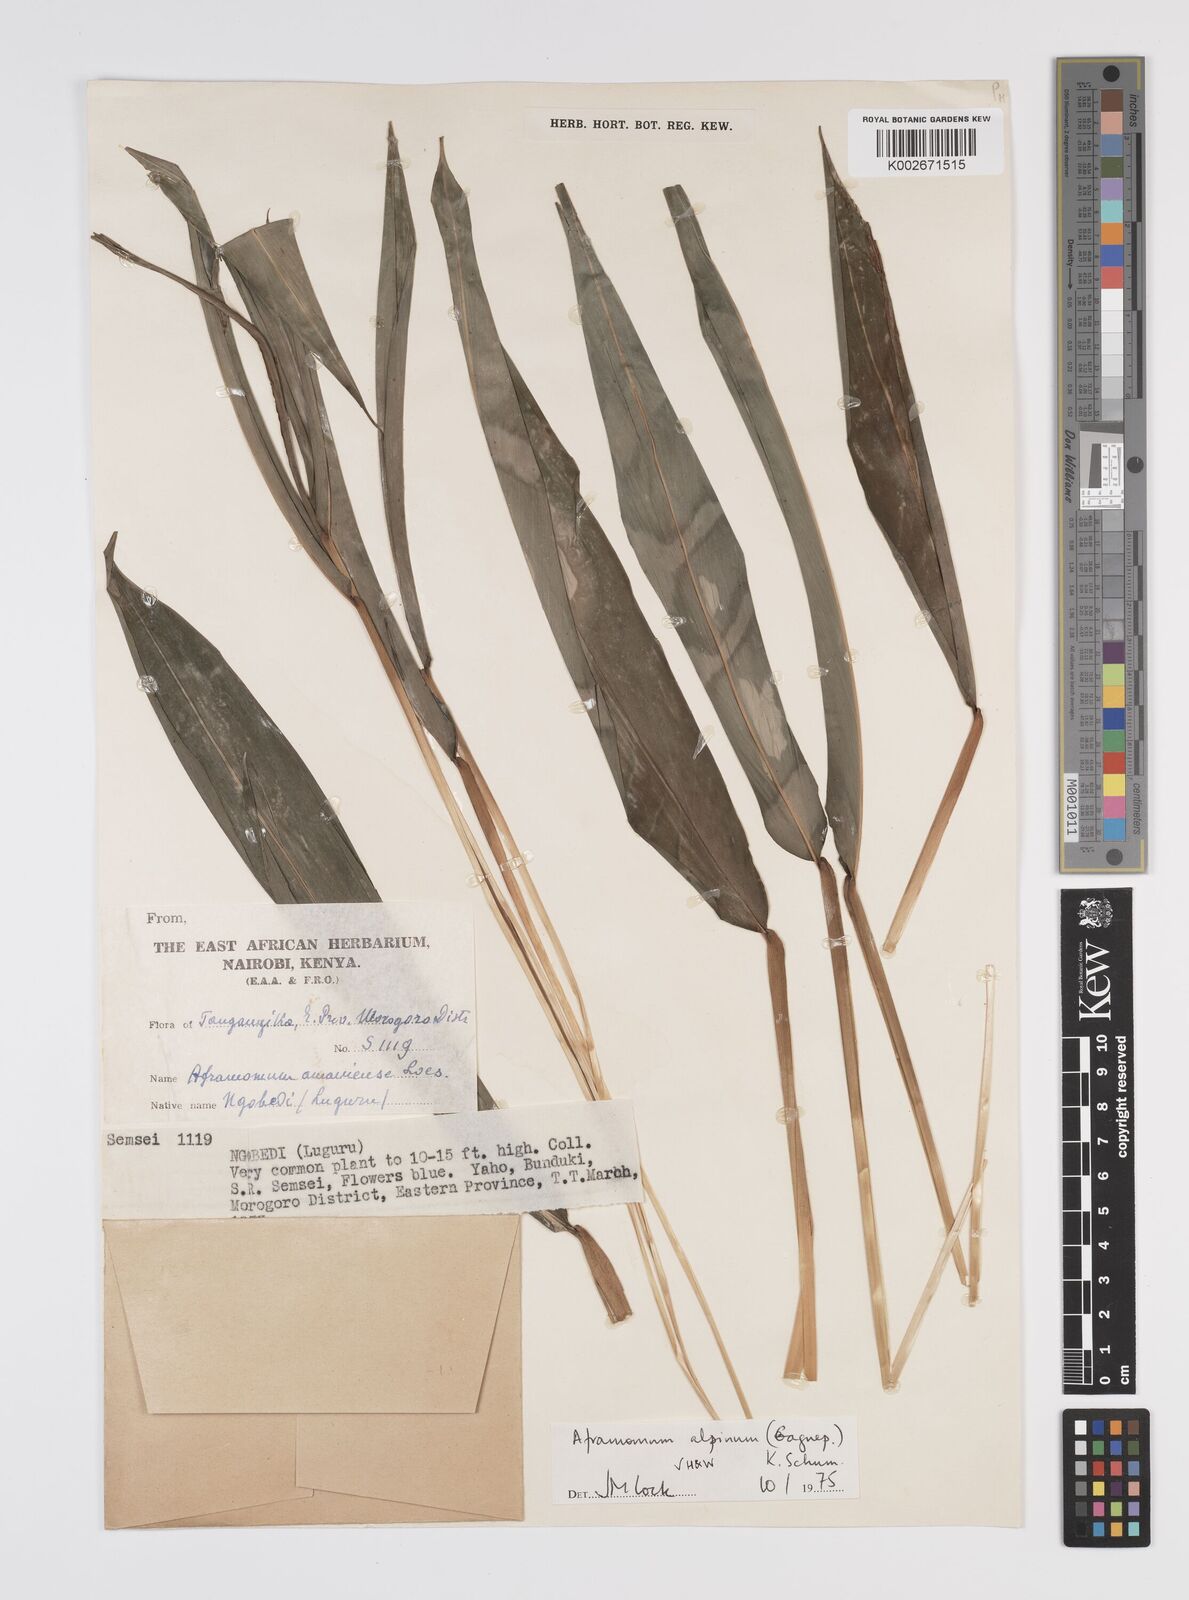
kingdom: Plantae
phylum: Tracheophyta
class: Liliopsida
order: Zingiberales
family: Zingiberaceae
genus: Aframomum
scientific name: Aframomum alpinum
